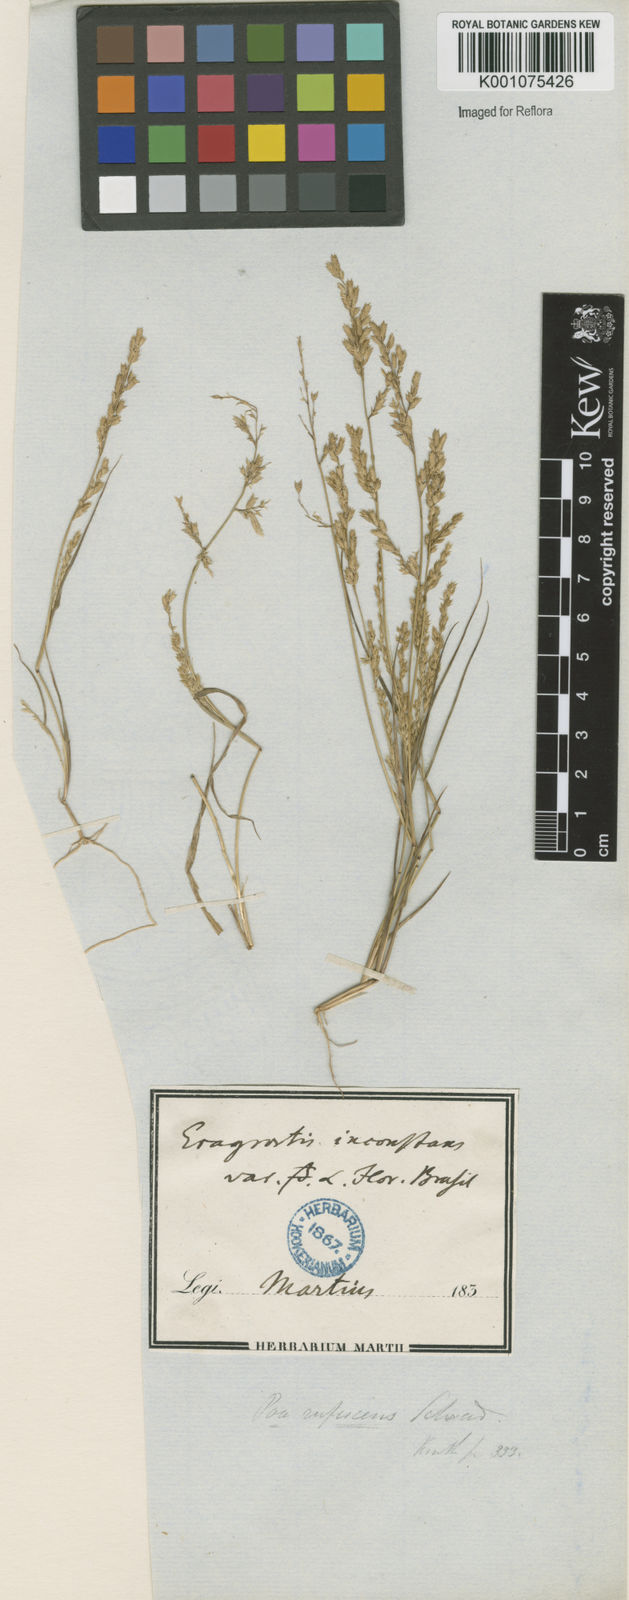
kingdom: Plantae
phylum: Tracheophyta
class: Liliopsida
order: Poales
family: Poaceae
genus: Eragrostis
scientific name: Eragrostis rufescens
